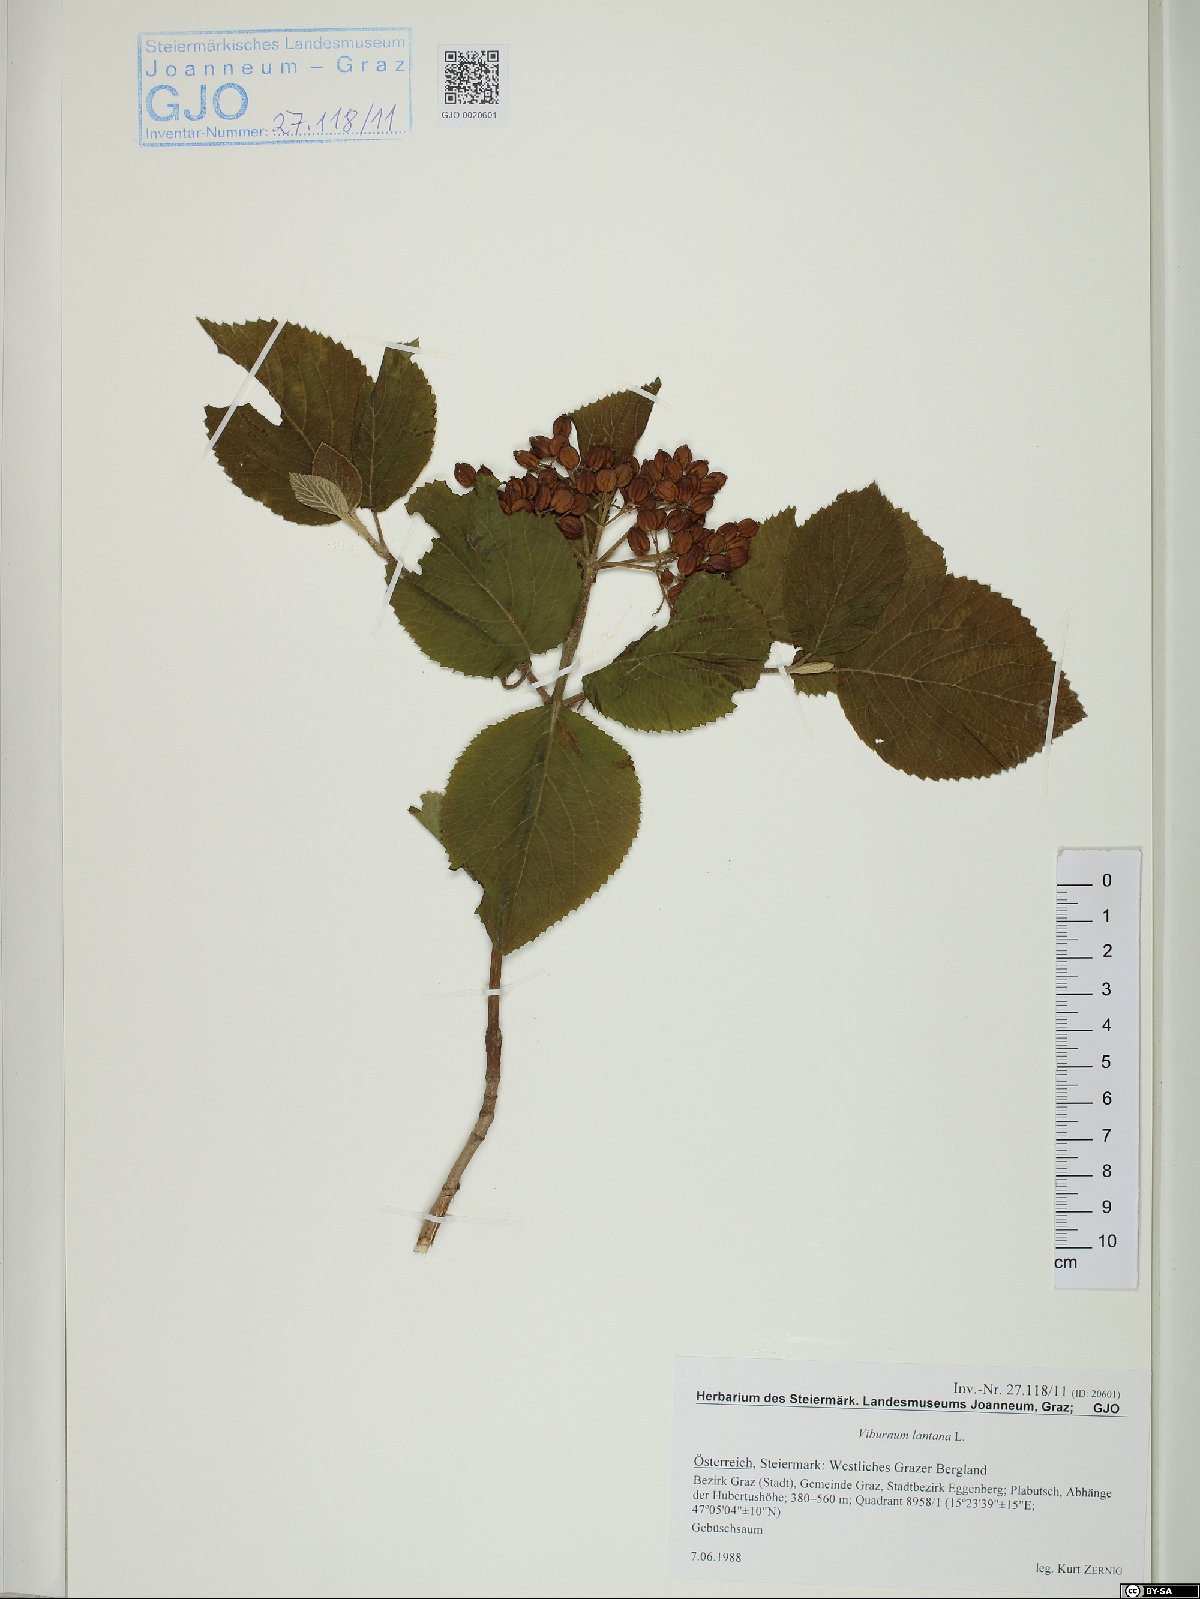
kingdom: Plantae
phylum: Tracheophyta
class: Magnoliopsida
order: Dipsacales
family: Viburnaceae
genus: Viburnum
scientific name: Viburnum lantana
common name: Wayfaring tree
